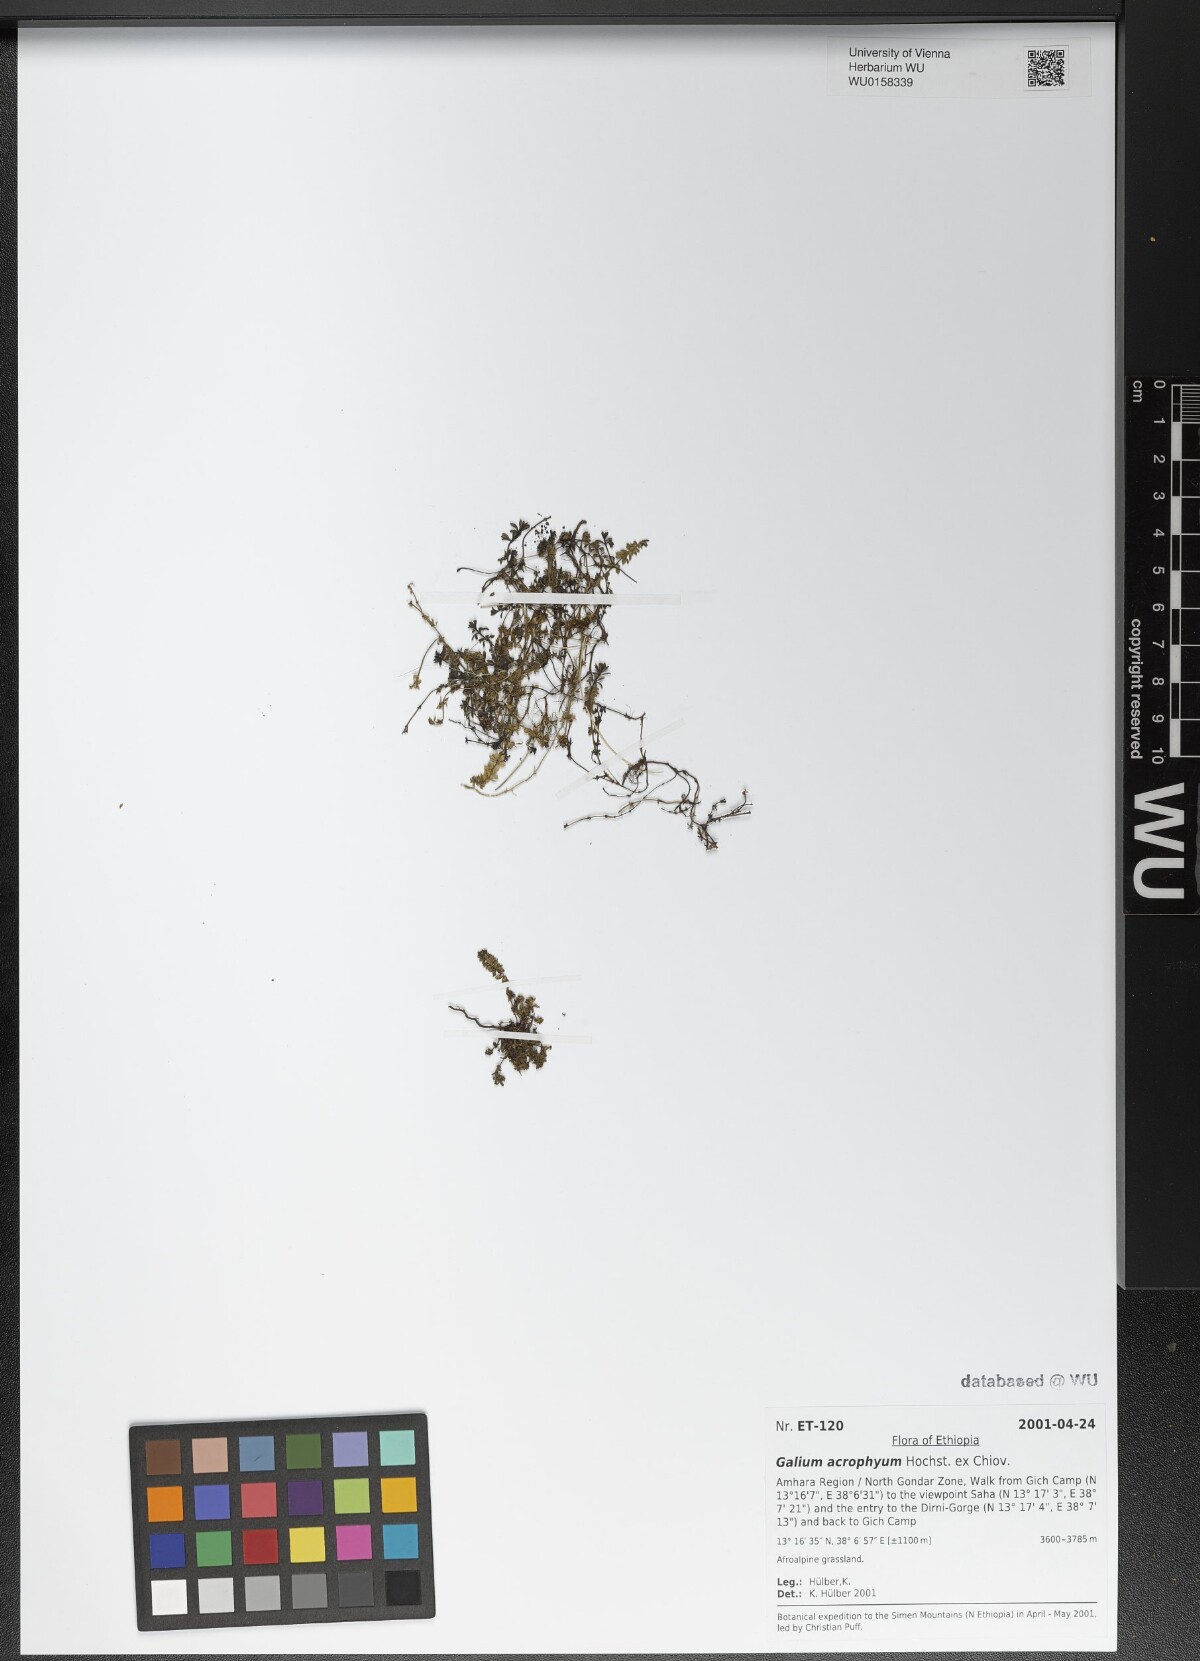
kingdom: Plantae
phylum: Tracheophyta
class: Magnoliopsida
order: Gentianales
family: Rubiaceae
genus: Galium
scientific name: Galium acrophyum
